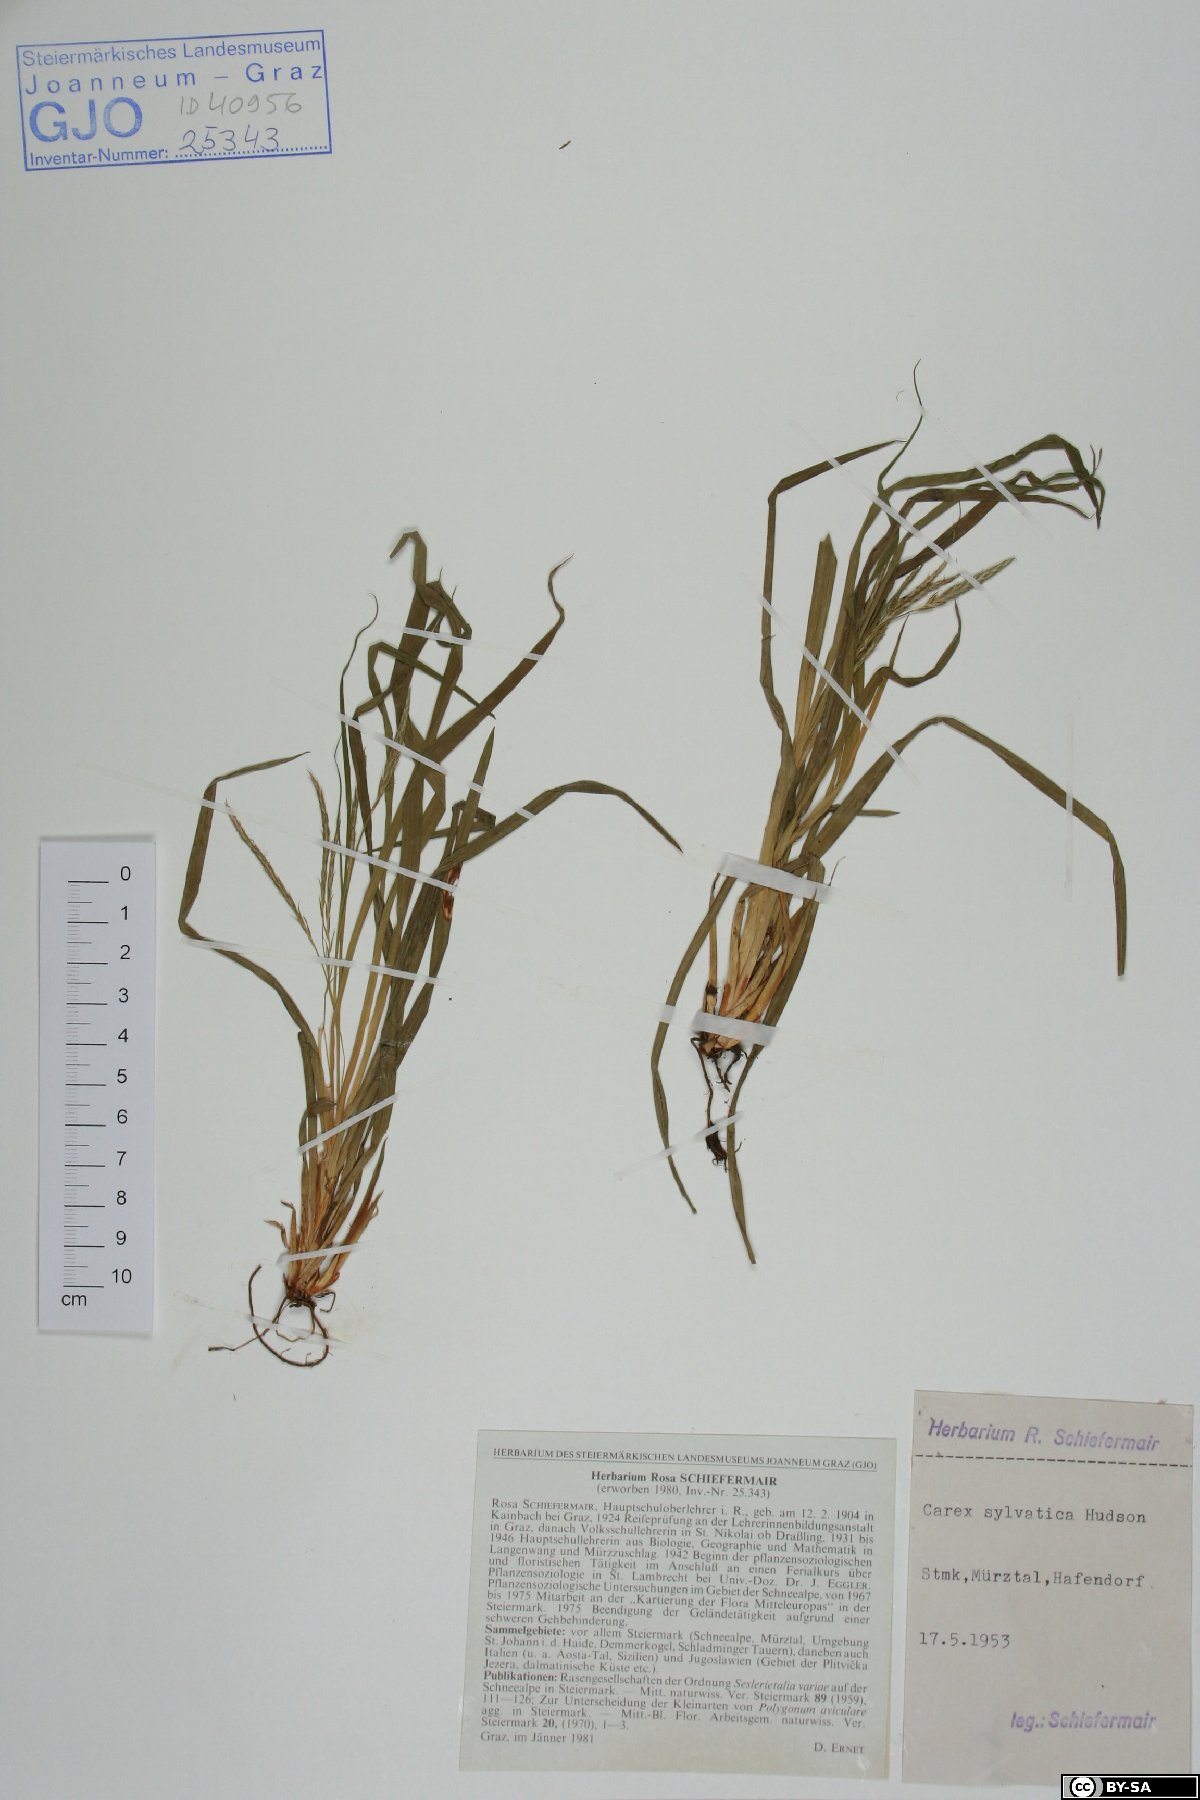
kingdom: Plantae
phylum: Tracheophyta
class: Liliopsida
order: Poales
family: Cyperaceae
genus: Carex
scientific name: Carex sylvatica
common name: Wood-sedge
